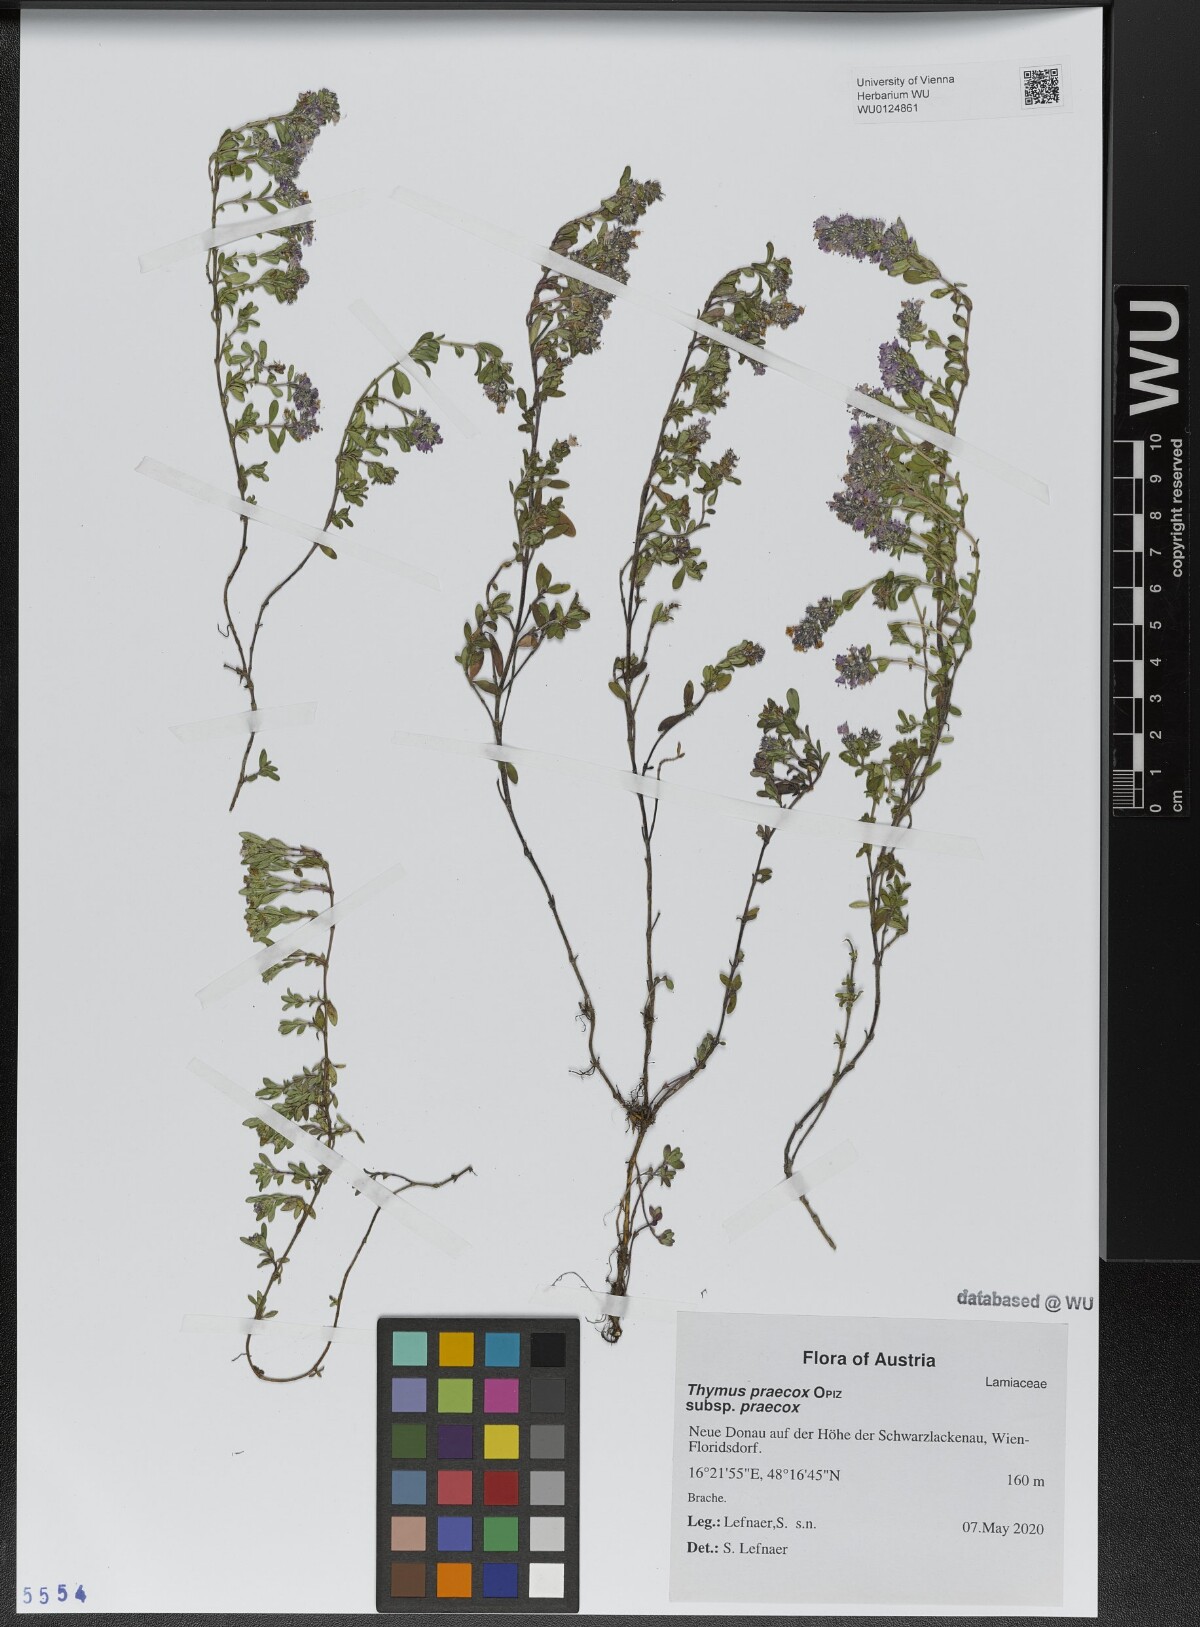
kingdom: Plantae
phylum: Tracheophyta
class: Magnoliopsida
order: Lamiales
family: Lamiaceae
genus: Thymus
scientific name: Thymus praecox
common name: Wild thyme
